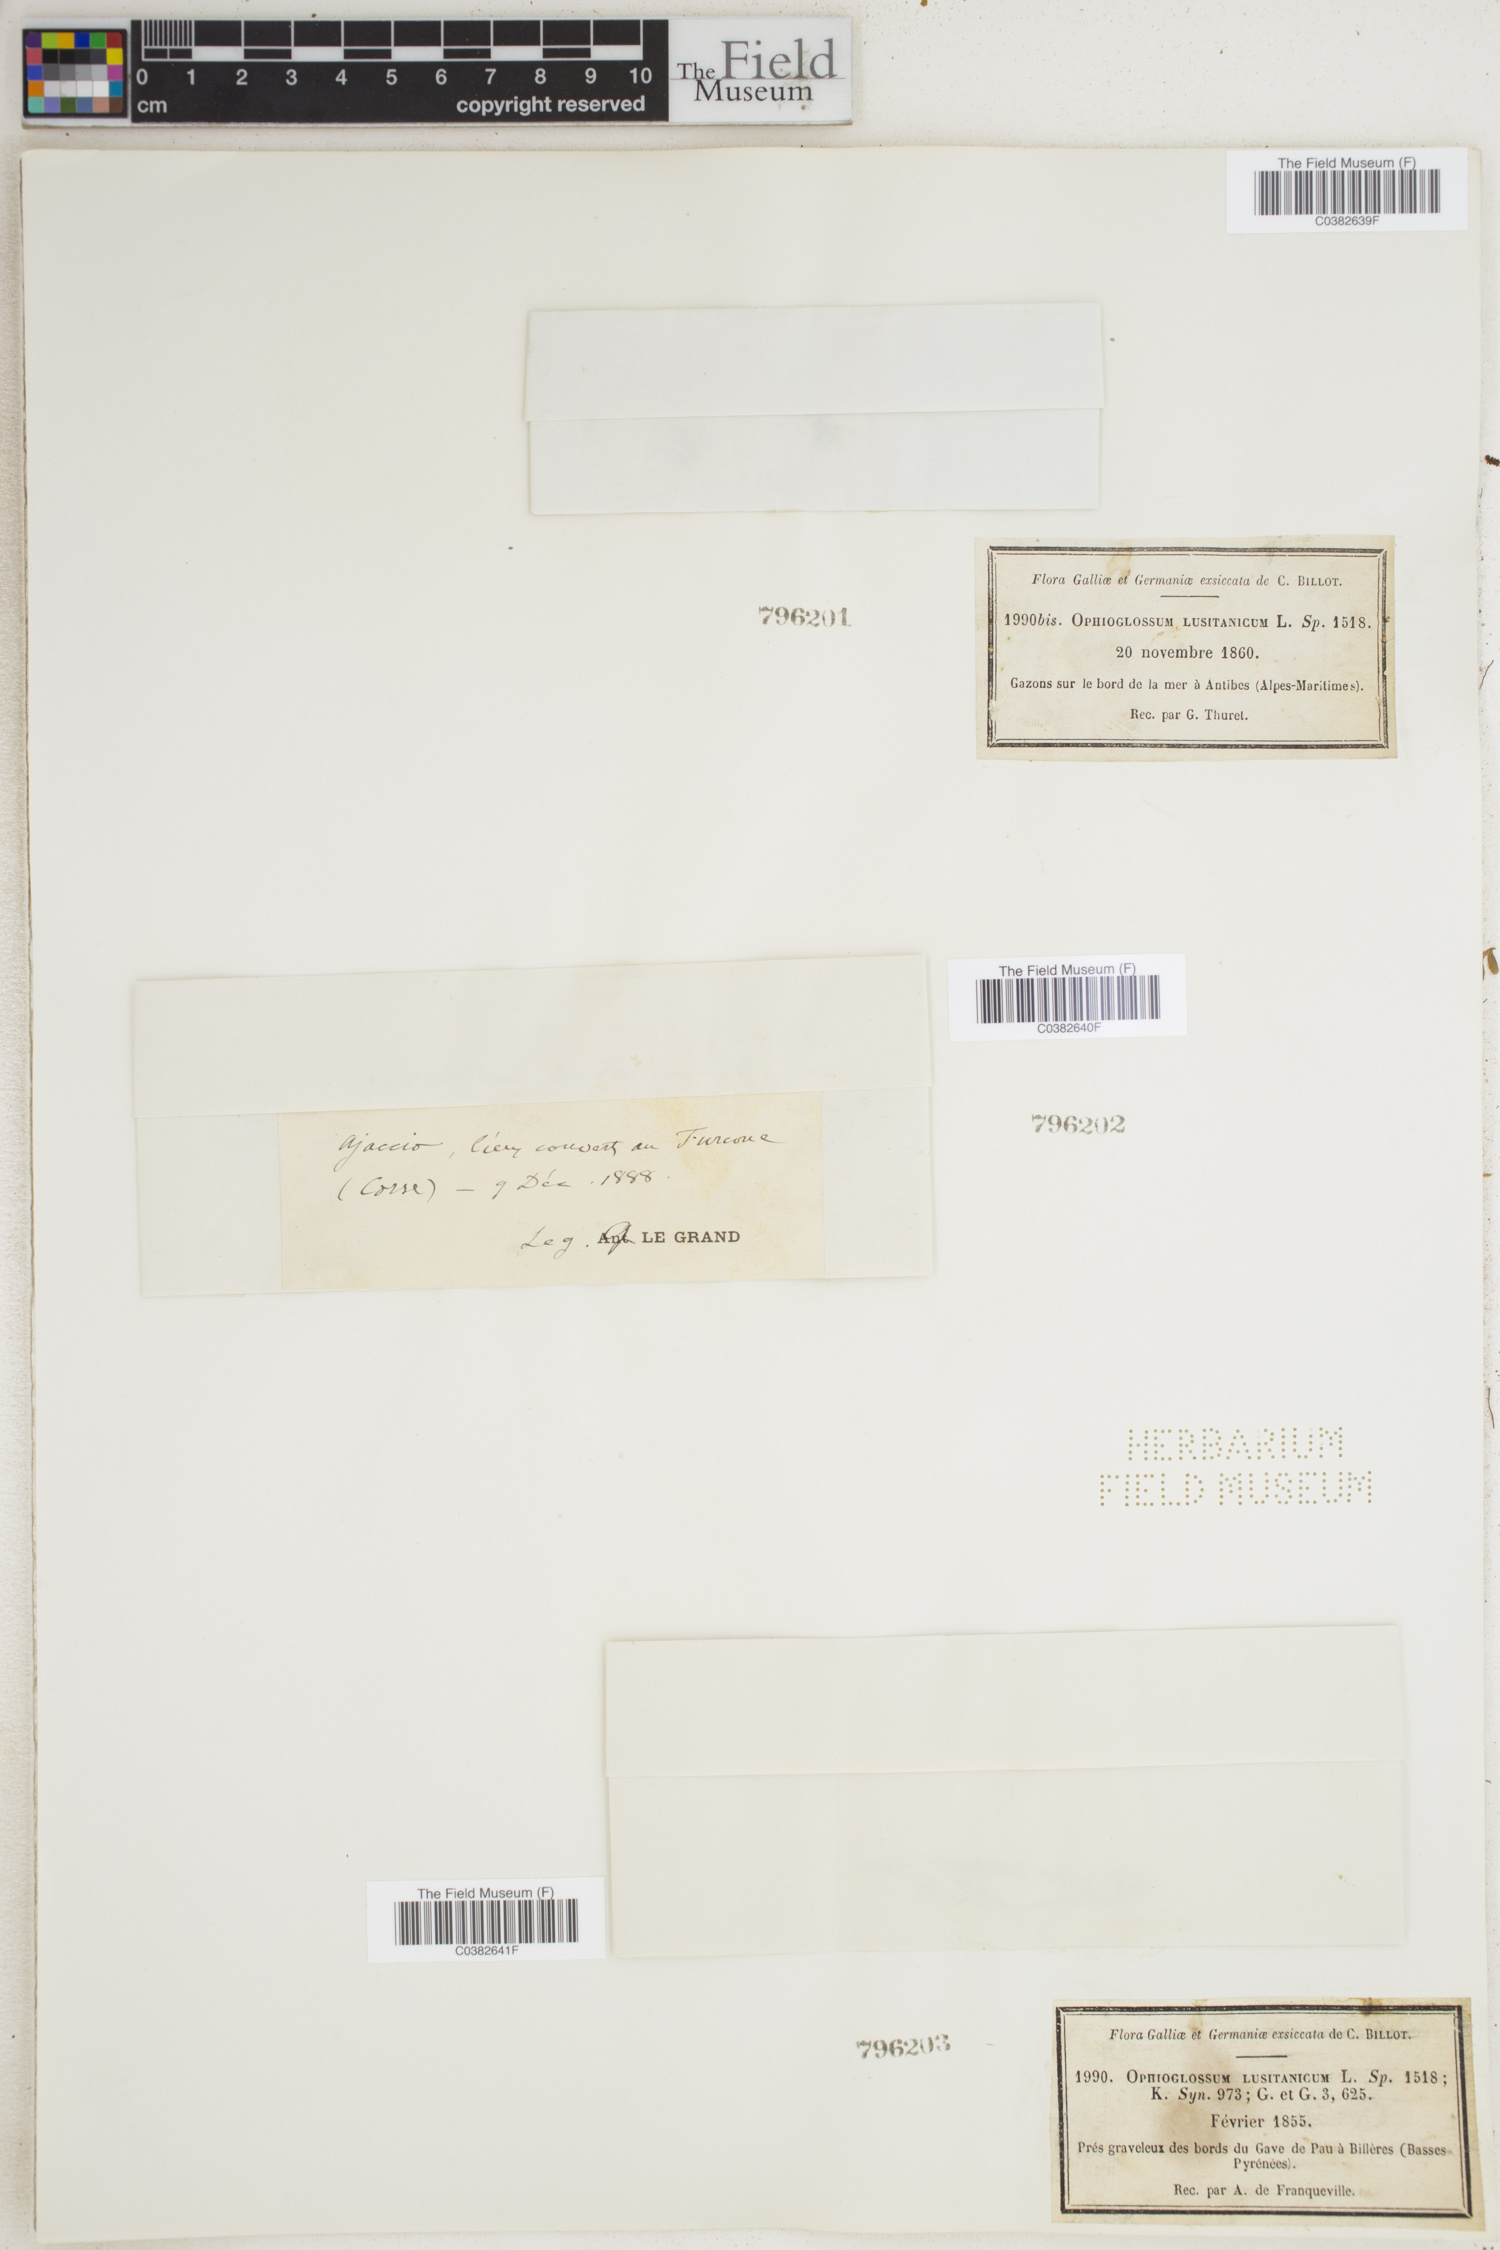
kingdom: Plantae
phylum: Tracheophyta
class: Polypodiopsida
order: Ophioglossales
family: Ophioglossaceae
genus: Ophioglossum
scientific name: Ophioglossum lusitanicum
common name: Least adder's-tongue
